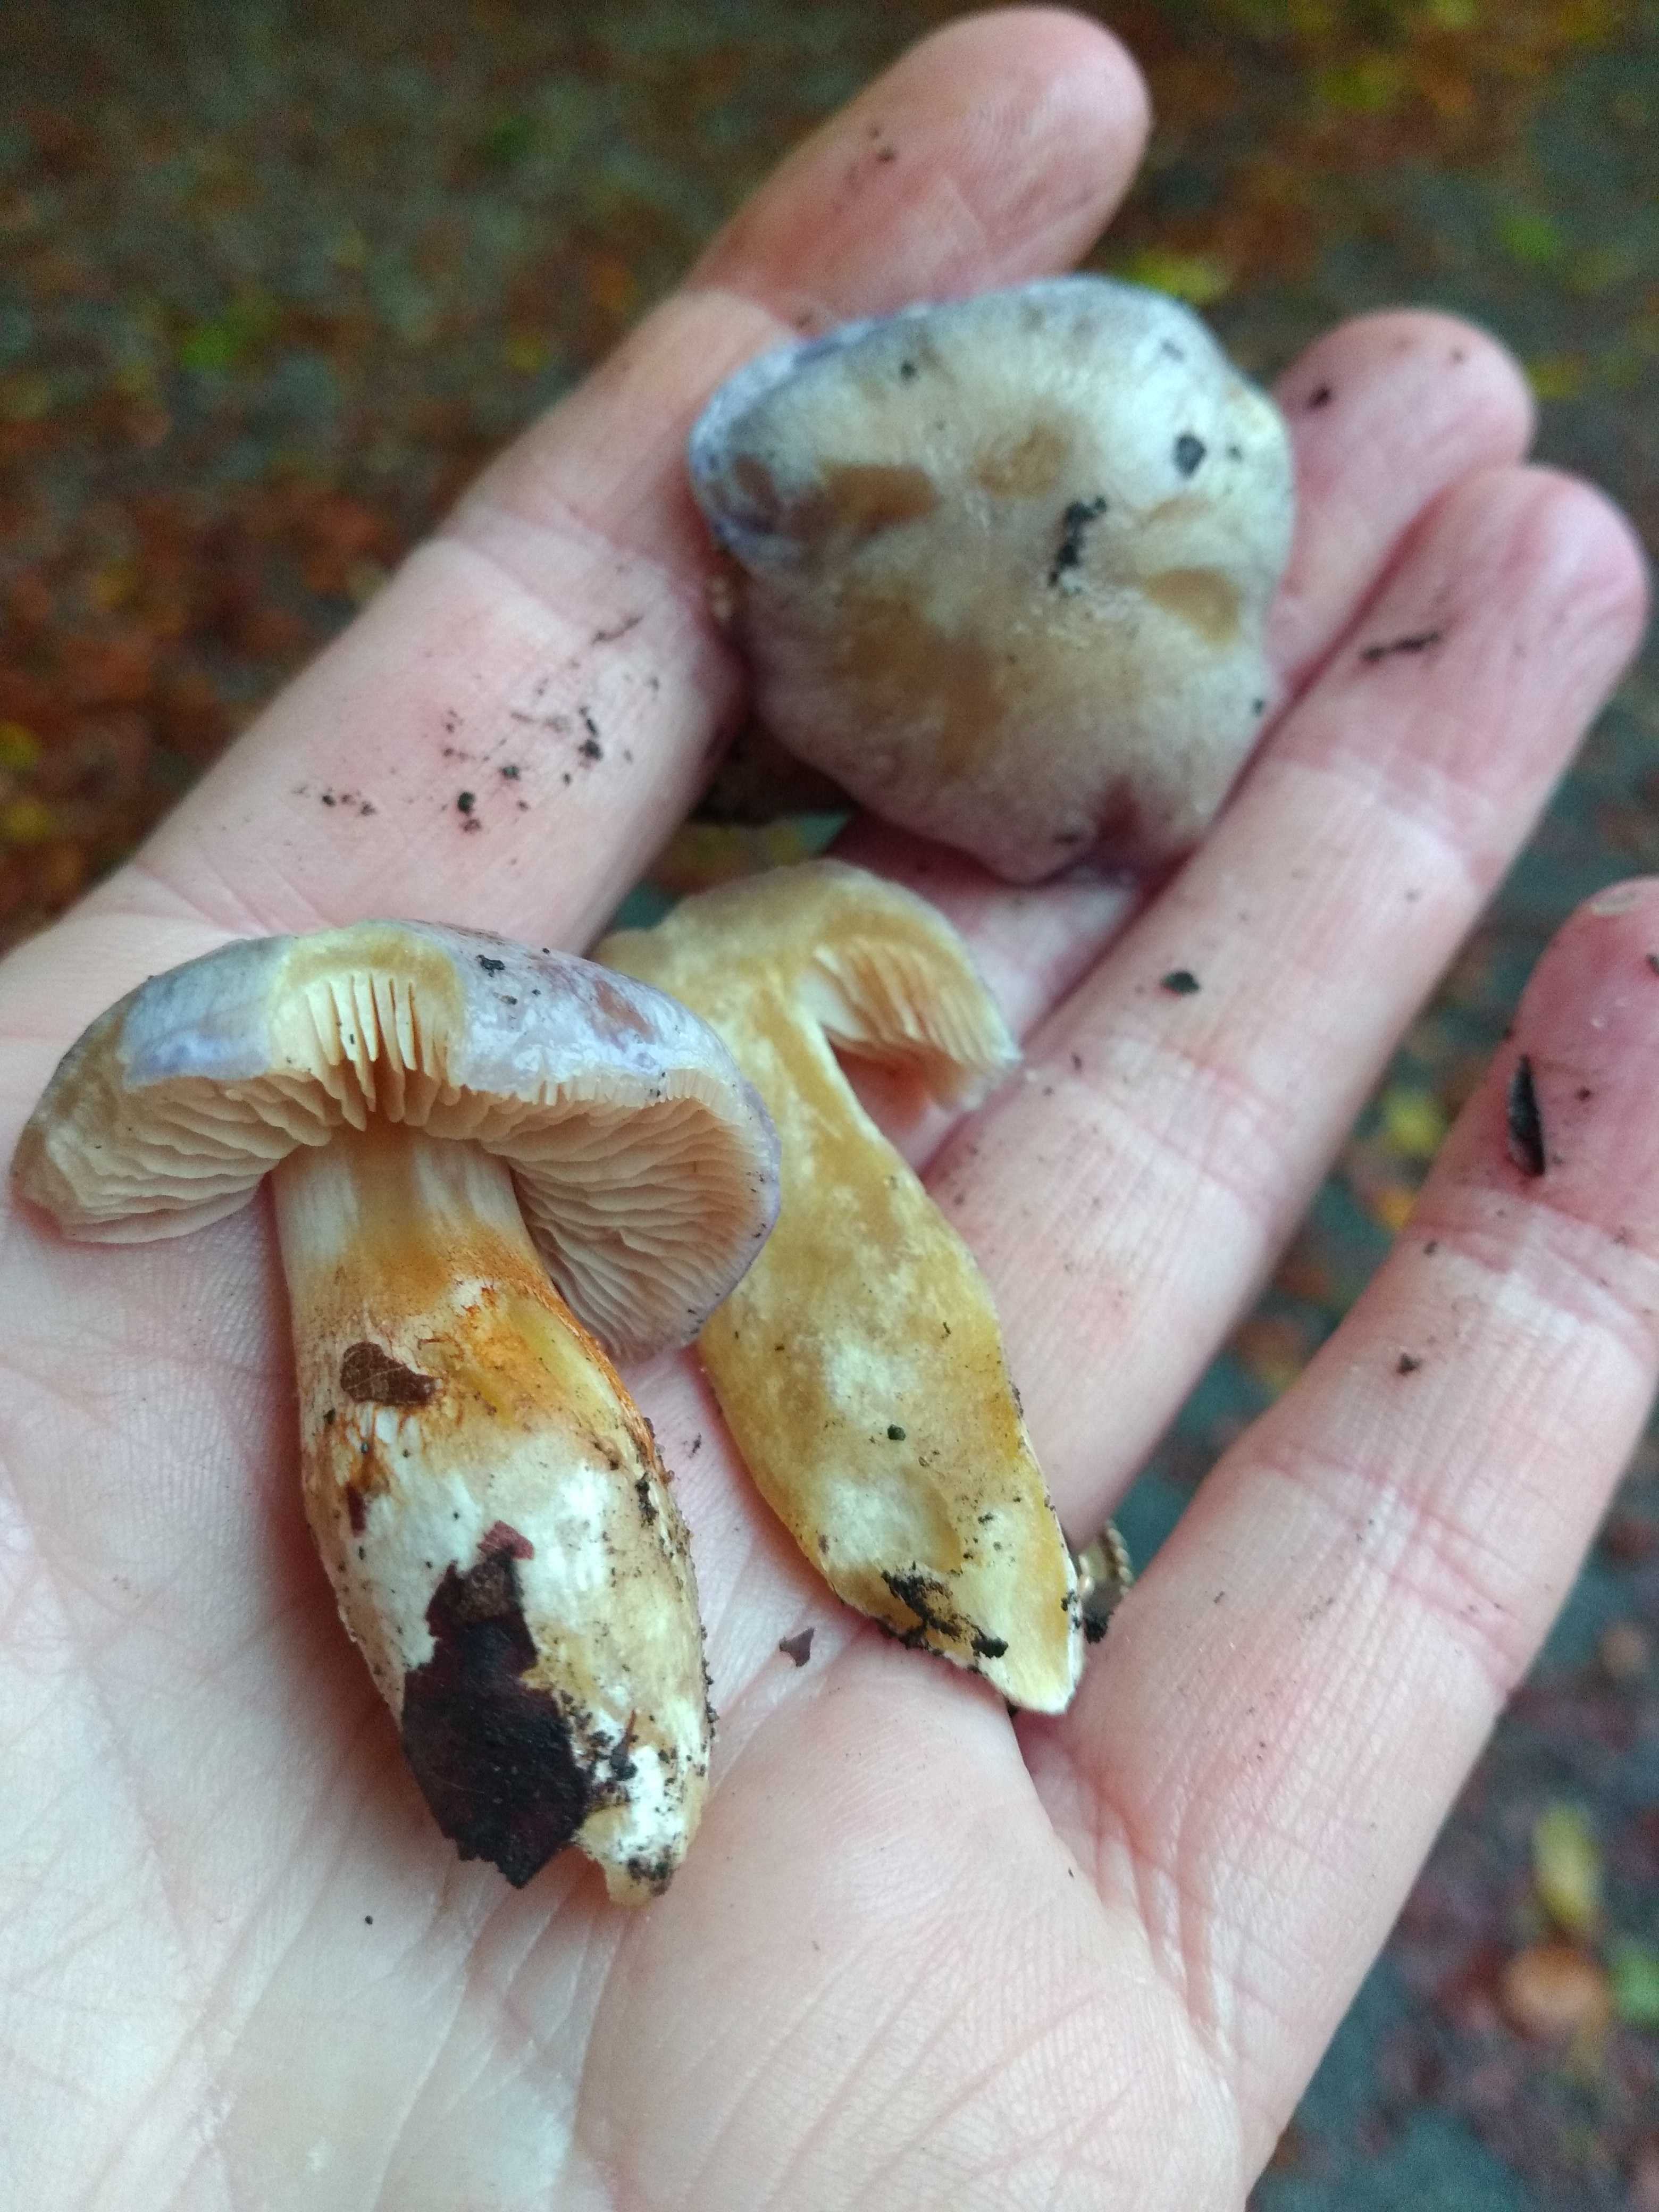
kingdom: Fungi
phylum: Basidiomycota
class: Agaricomycetes
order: Agaricales
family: Cortinariaceae
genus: Thaxterogaster
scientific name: Thaxterogaster croceocoeruleus
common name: blågullig slørhat
